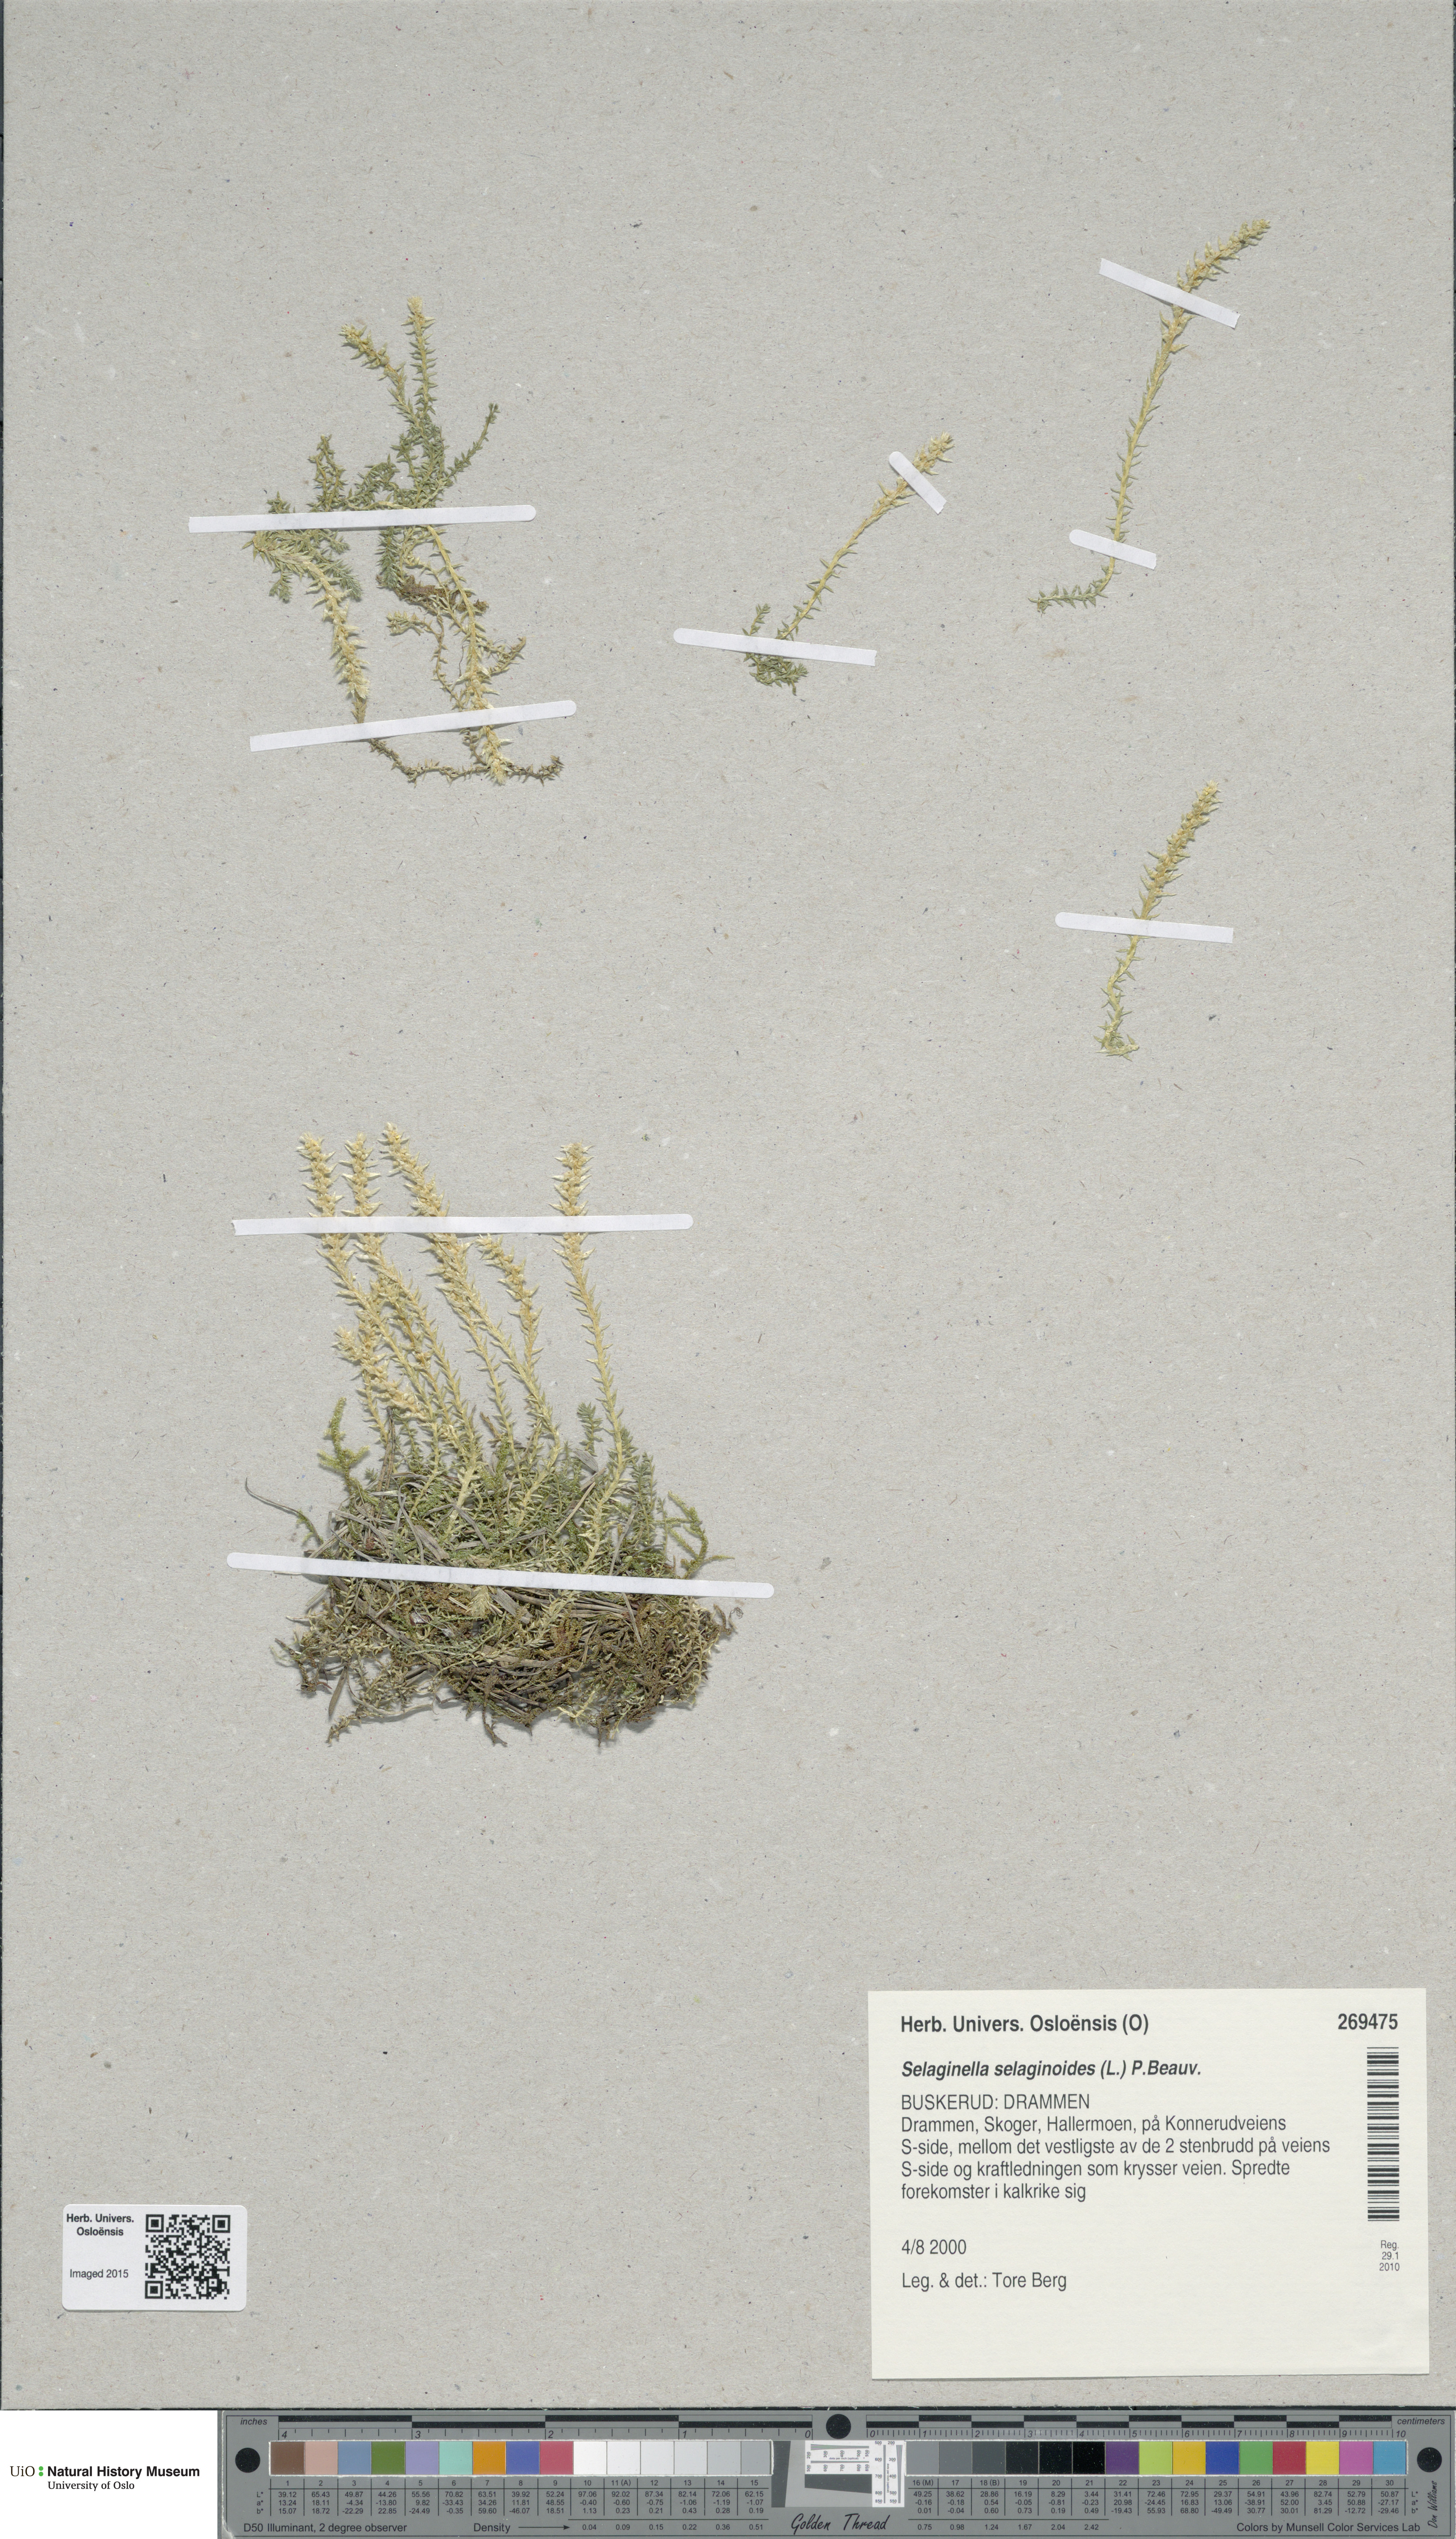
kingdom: Plantae
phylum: Tracheophyta
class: Lycopodiopsida
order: Selaginellales
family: Selaginellaceae
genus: Selaginella
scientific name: Selaginella selaginoides
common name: Prickly mountain-moss
